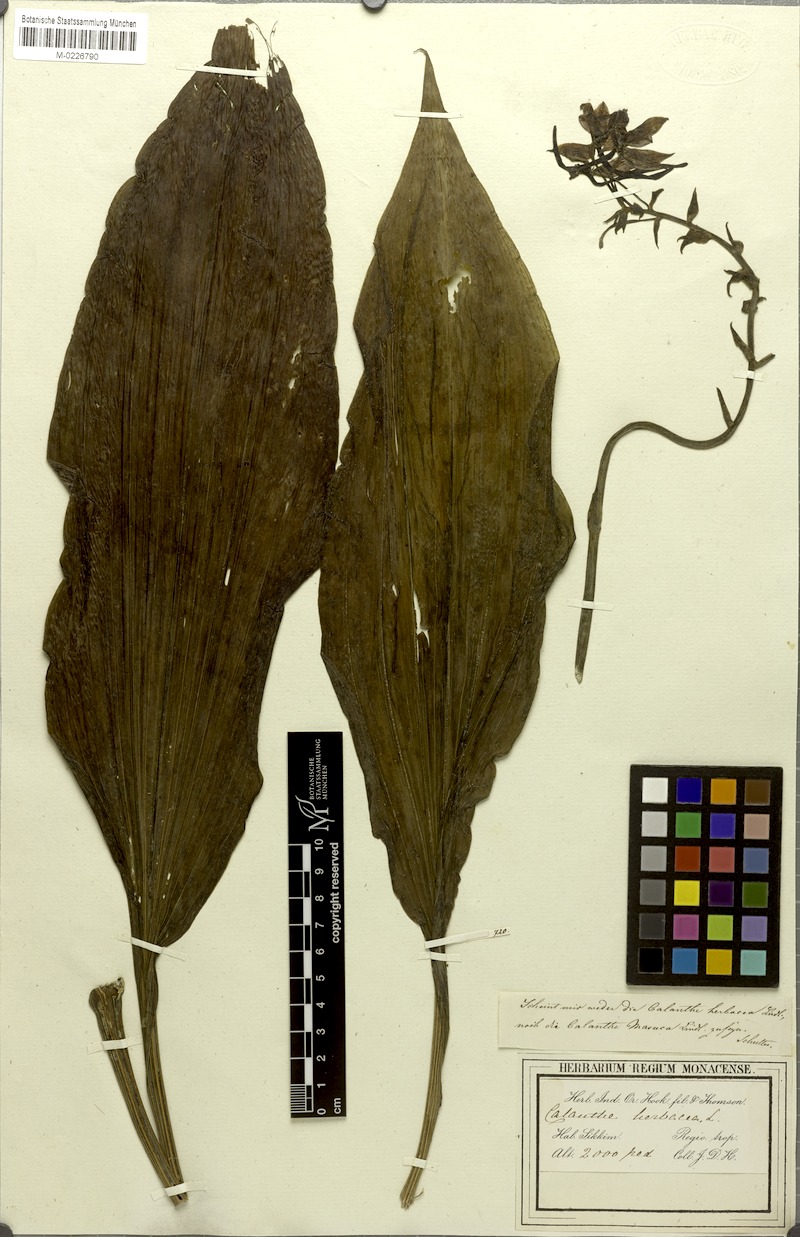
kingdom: Plantae
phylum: Tracheophyta
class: Liliopsida
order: Asparagales
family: Orchidaceae
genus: Calanthe
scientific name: Calanthe herbacea
